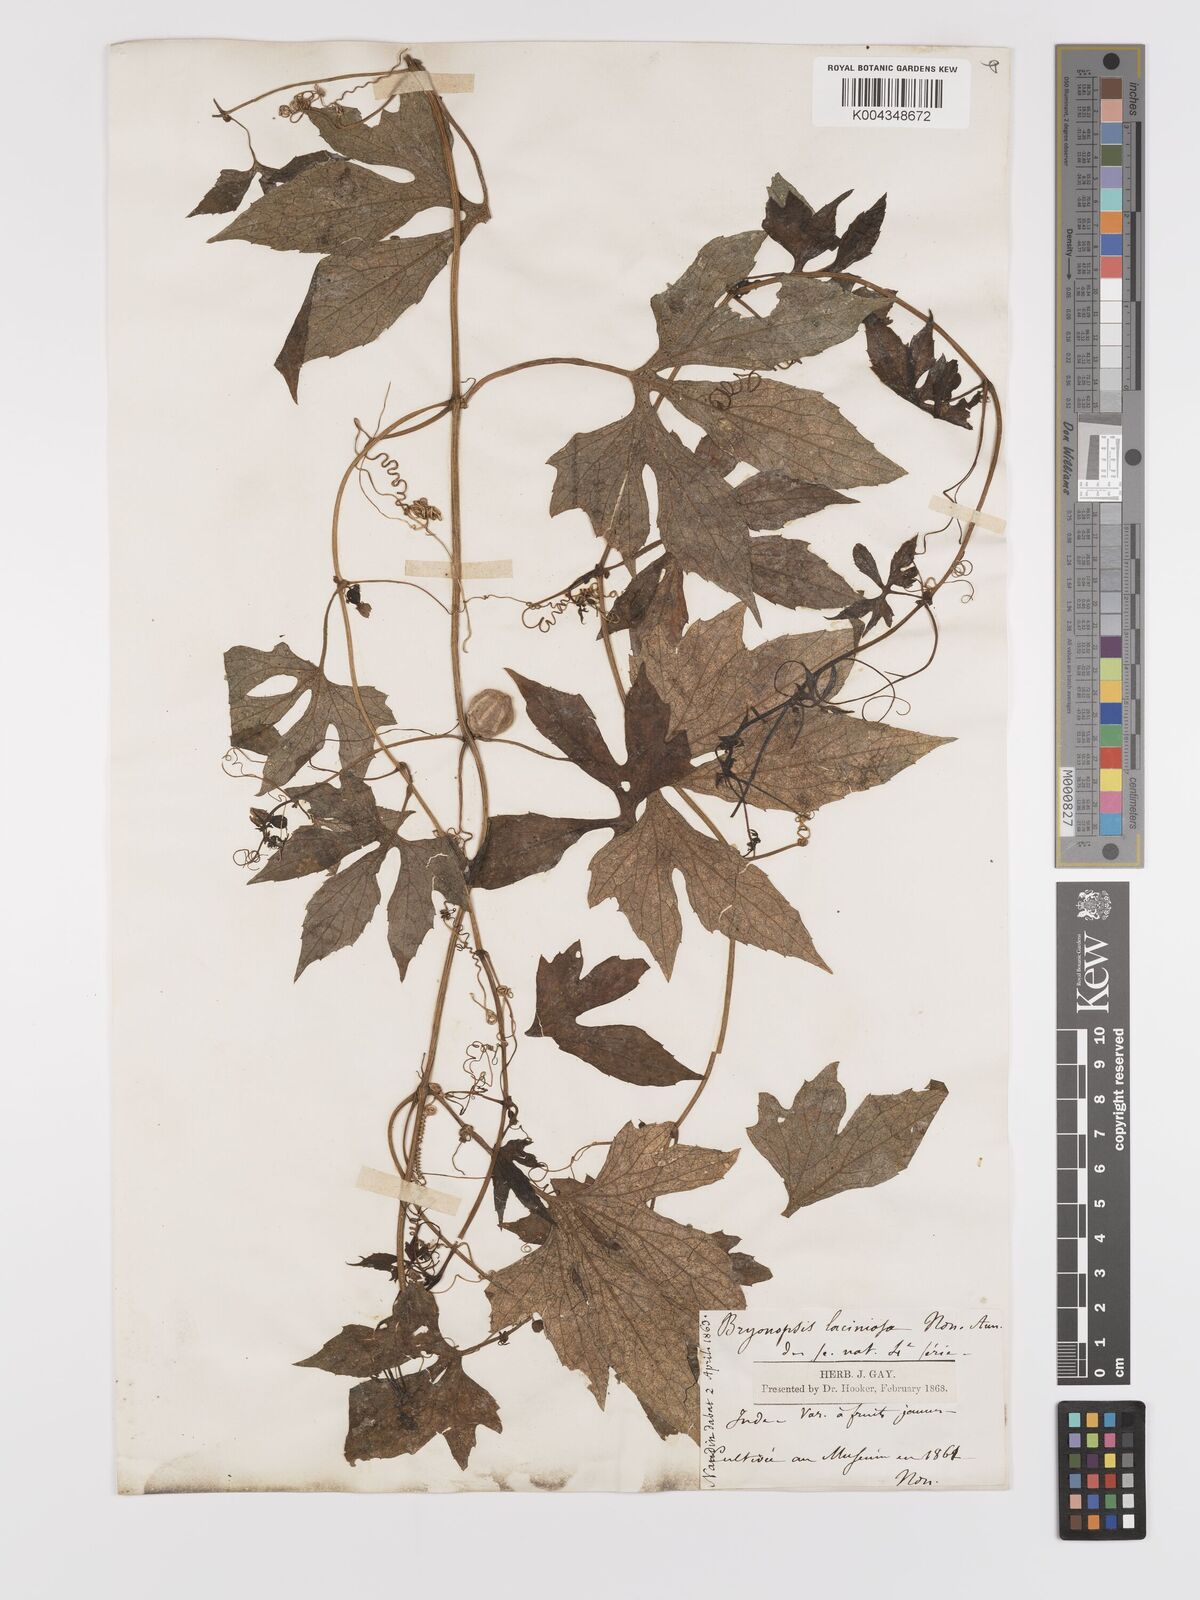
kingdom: Plantae
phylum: Tracheophyta
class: Magnoliopsida
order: Cucurbitales
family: Cucurbitaceae
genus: Diplocyclos
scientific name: Diplocyclos palmatus
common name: Striped-cucumber
